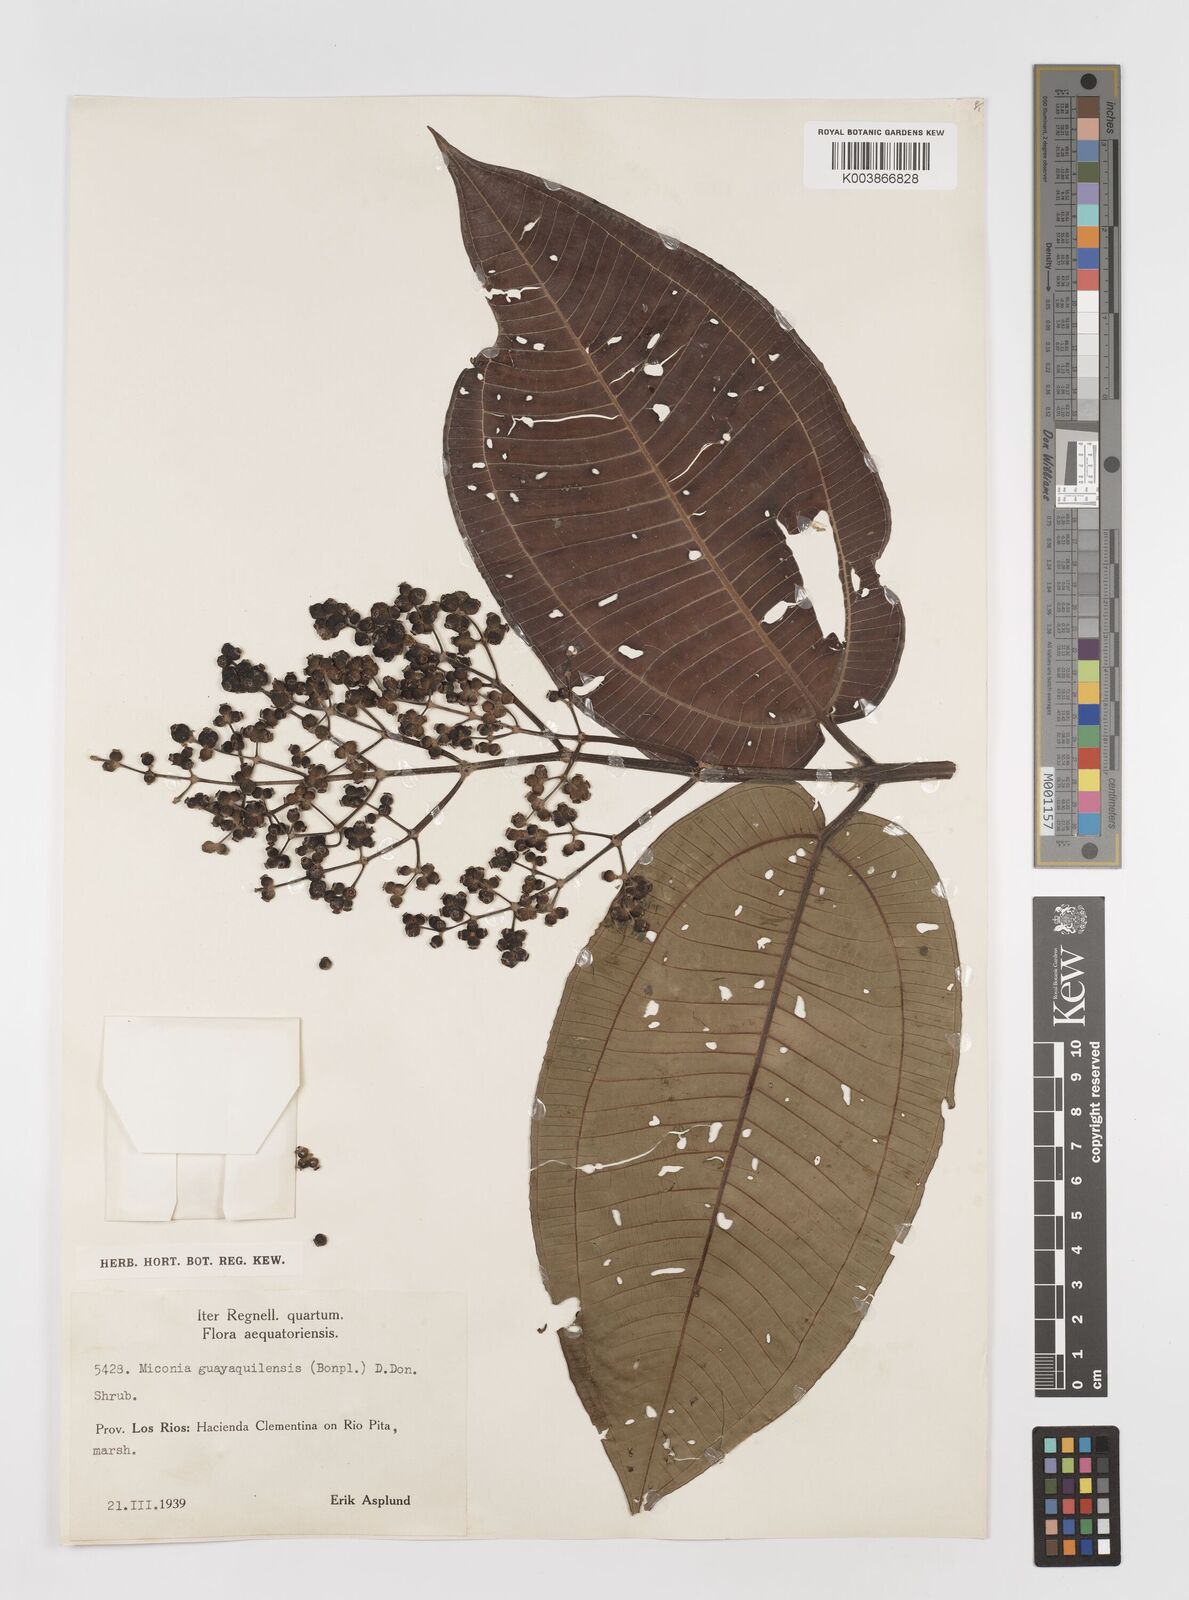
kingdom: Plantae
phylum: Tracheophyta
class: Magnoliopsida
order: Myrtales
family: Melastomataceae
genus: Miconia
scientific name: Miconia guayaquilensis
